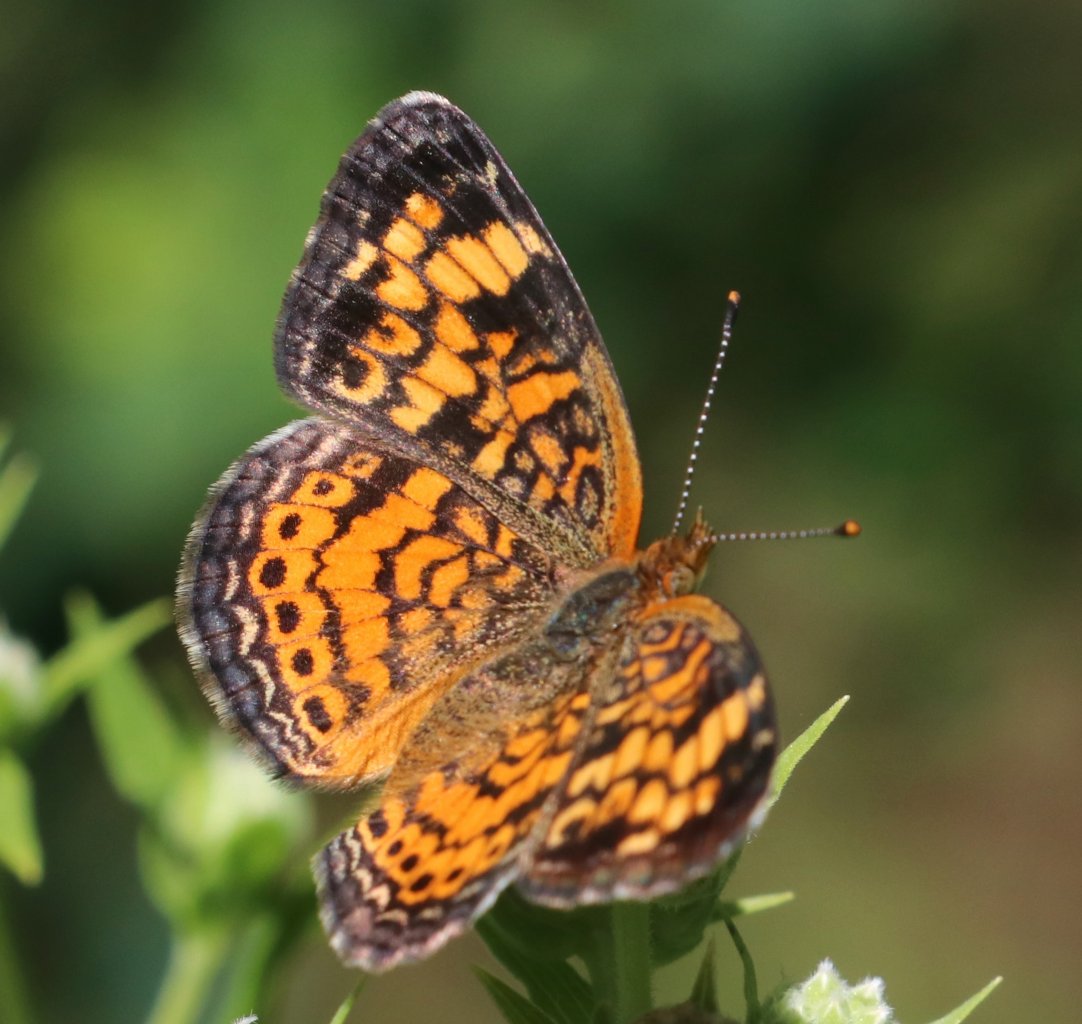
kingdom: Animalia
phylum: Arthropoda
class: Insecta
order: Lepidoptera
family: Nymphalidae
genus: Phyciodes
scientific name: Phyciodes tharos
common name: Pearl Crescent
